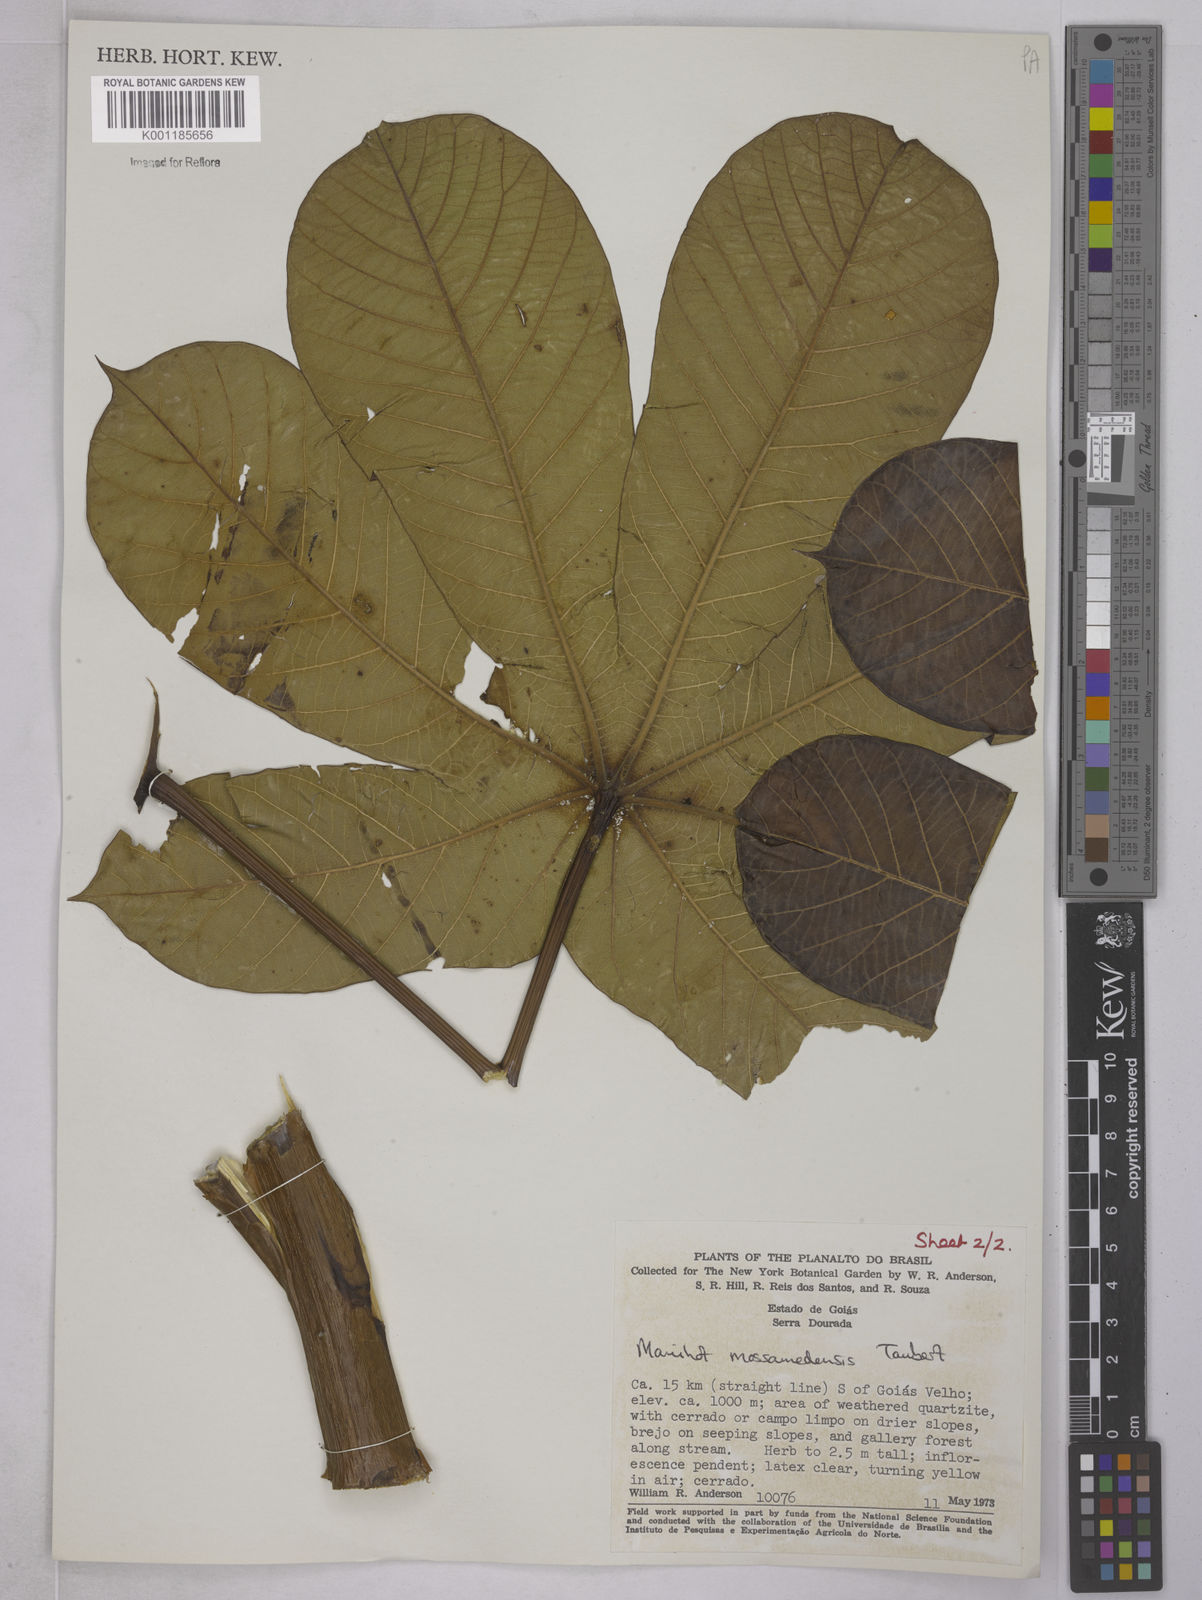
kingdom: Plantae
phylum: Tracheophyta
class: Magnoliopsida
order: Malpighiales
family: Euphorbiaceae
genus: Manihot
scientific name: Manihot mossamedensis
